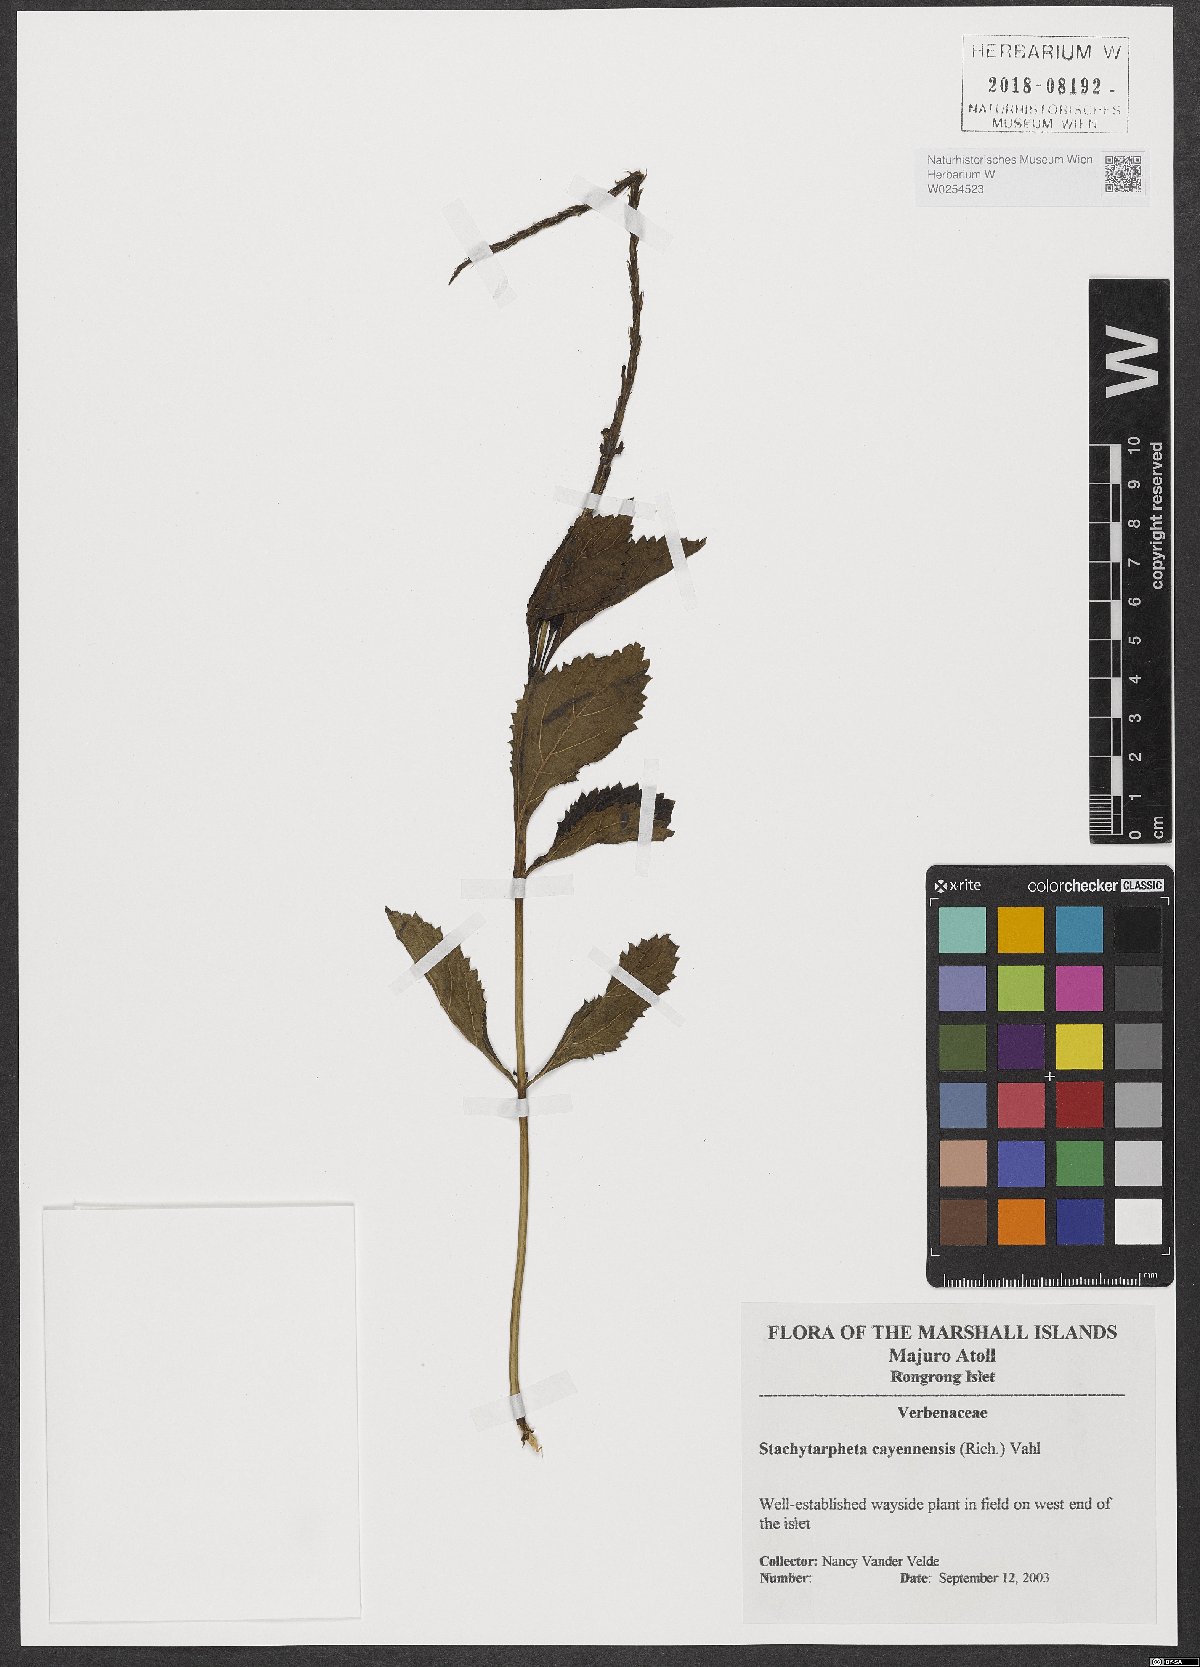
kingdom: Plantae
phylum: Tracheophyta
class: Magnoliopsida
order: Lamiales
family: Verbenaceae
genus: Stachytarpheta
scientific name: Stachytarpheta cayennensis
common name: Cayenne porterweed
